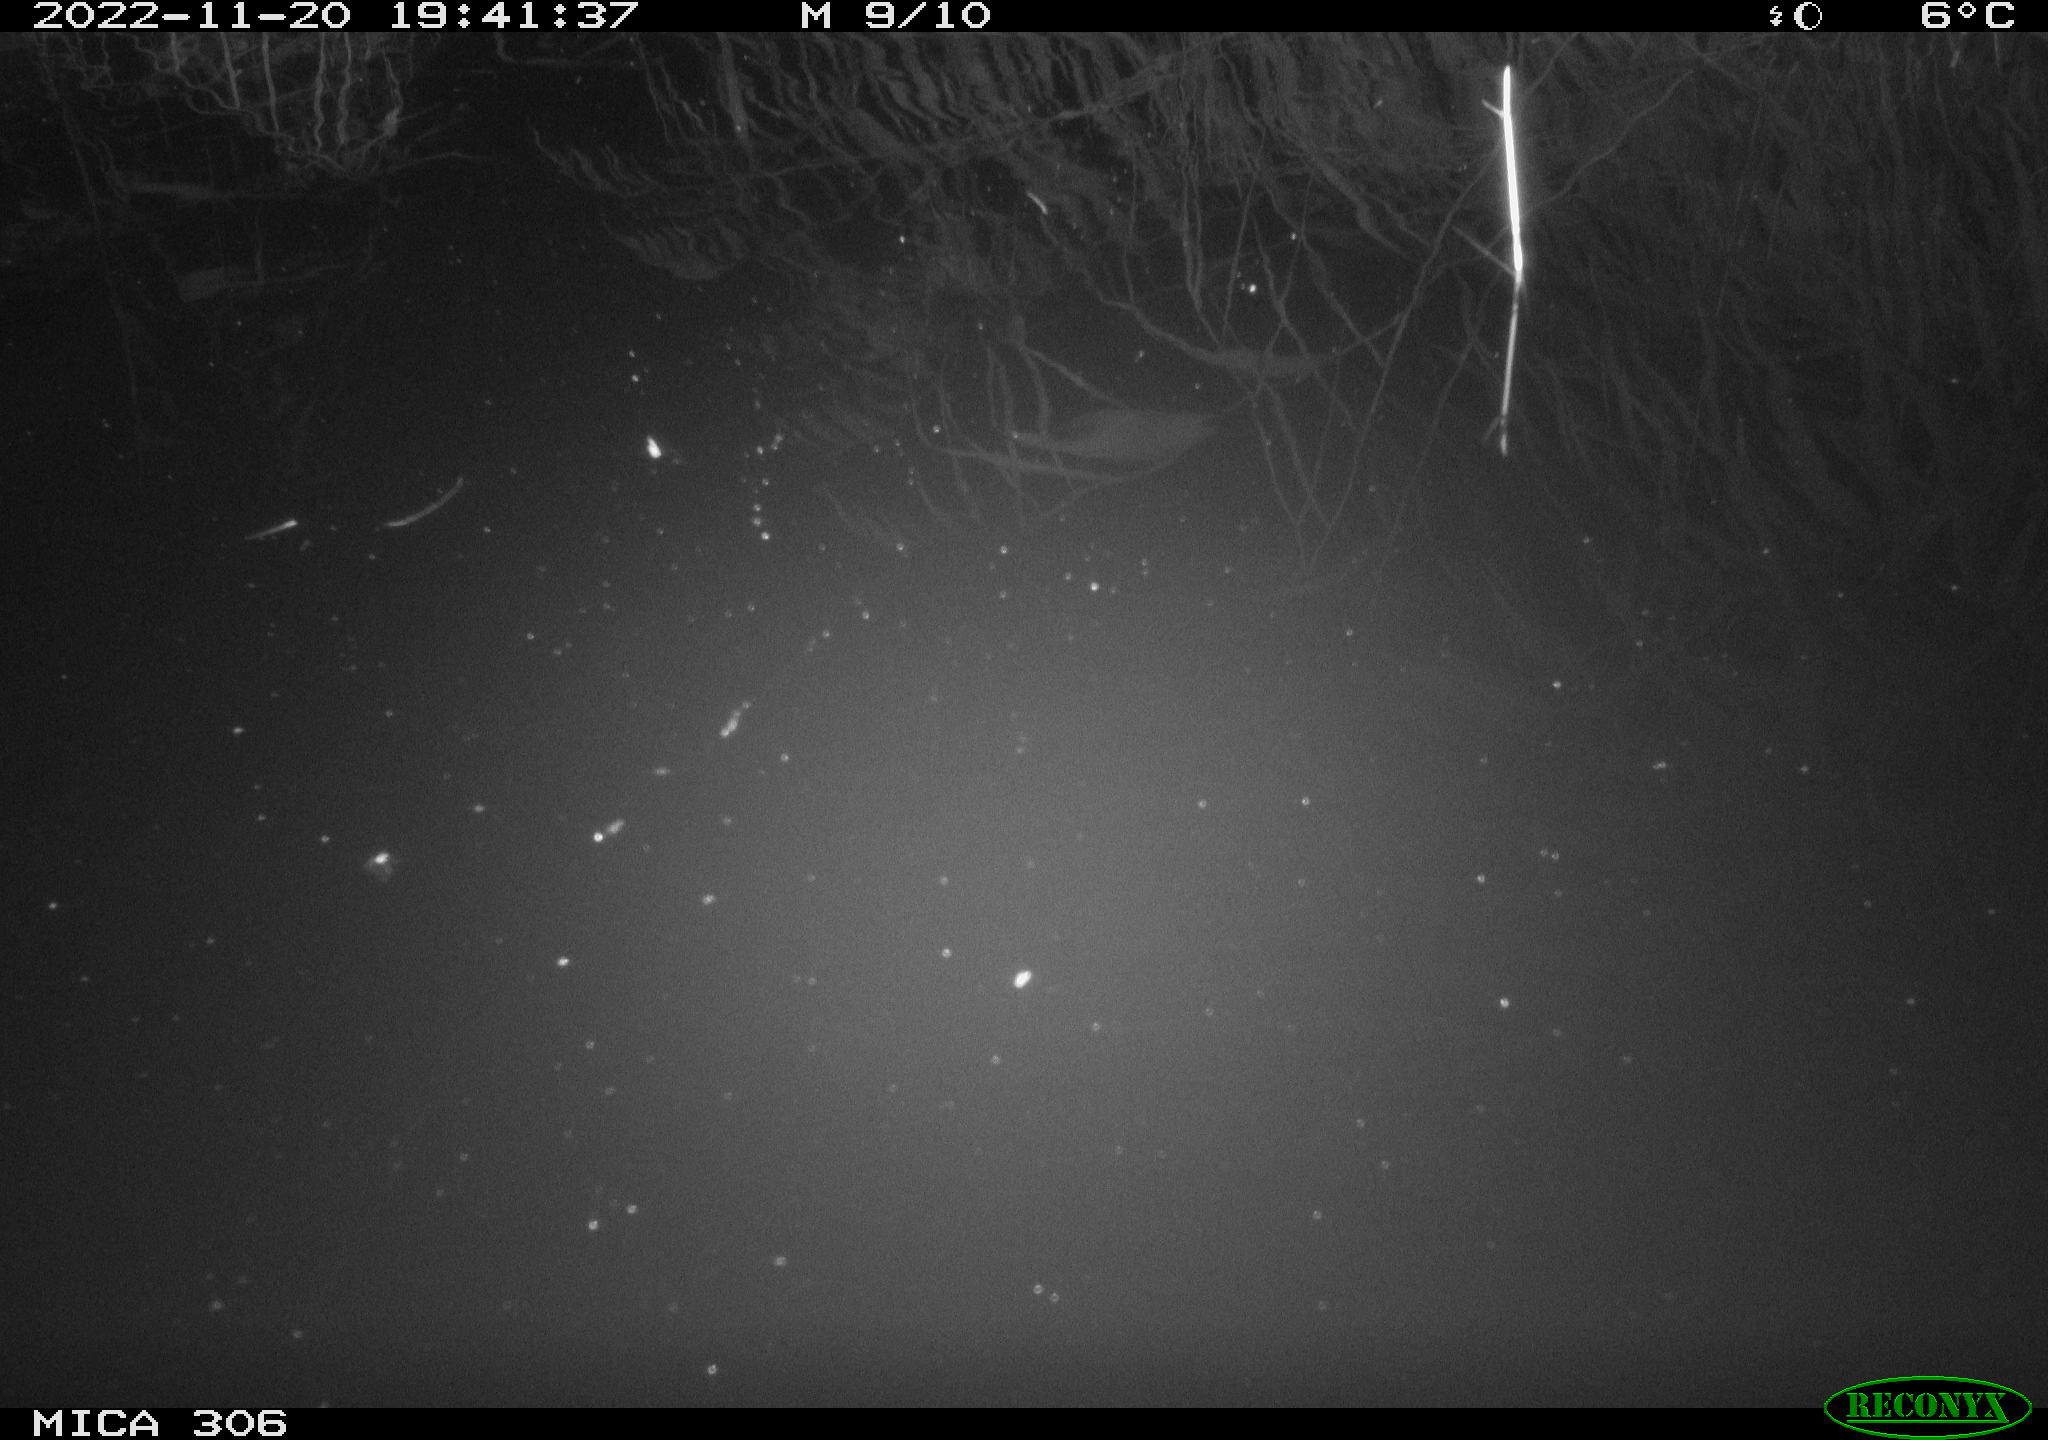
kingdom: Animalia
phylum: Chordata
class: Mammalia
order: Rodentia
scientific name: Rodentia
